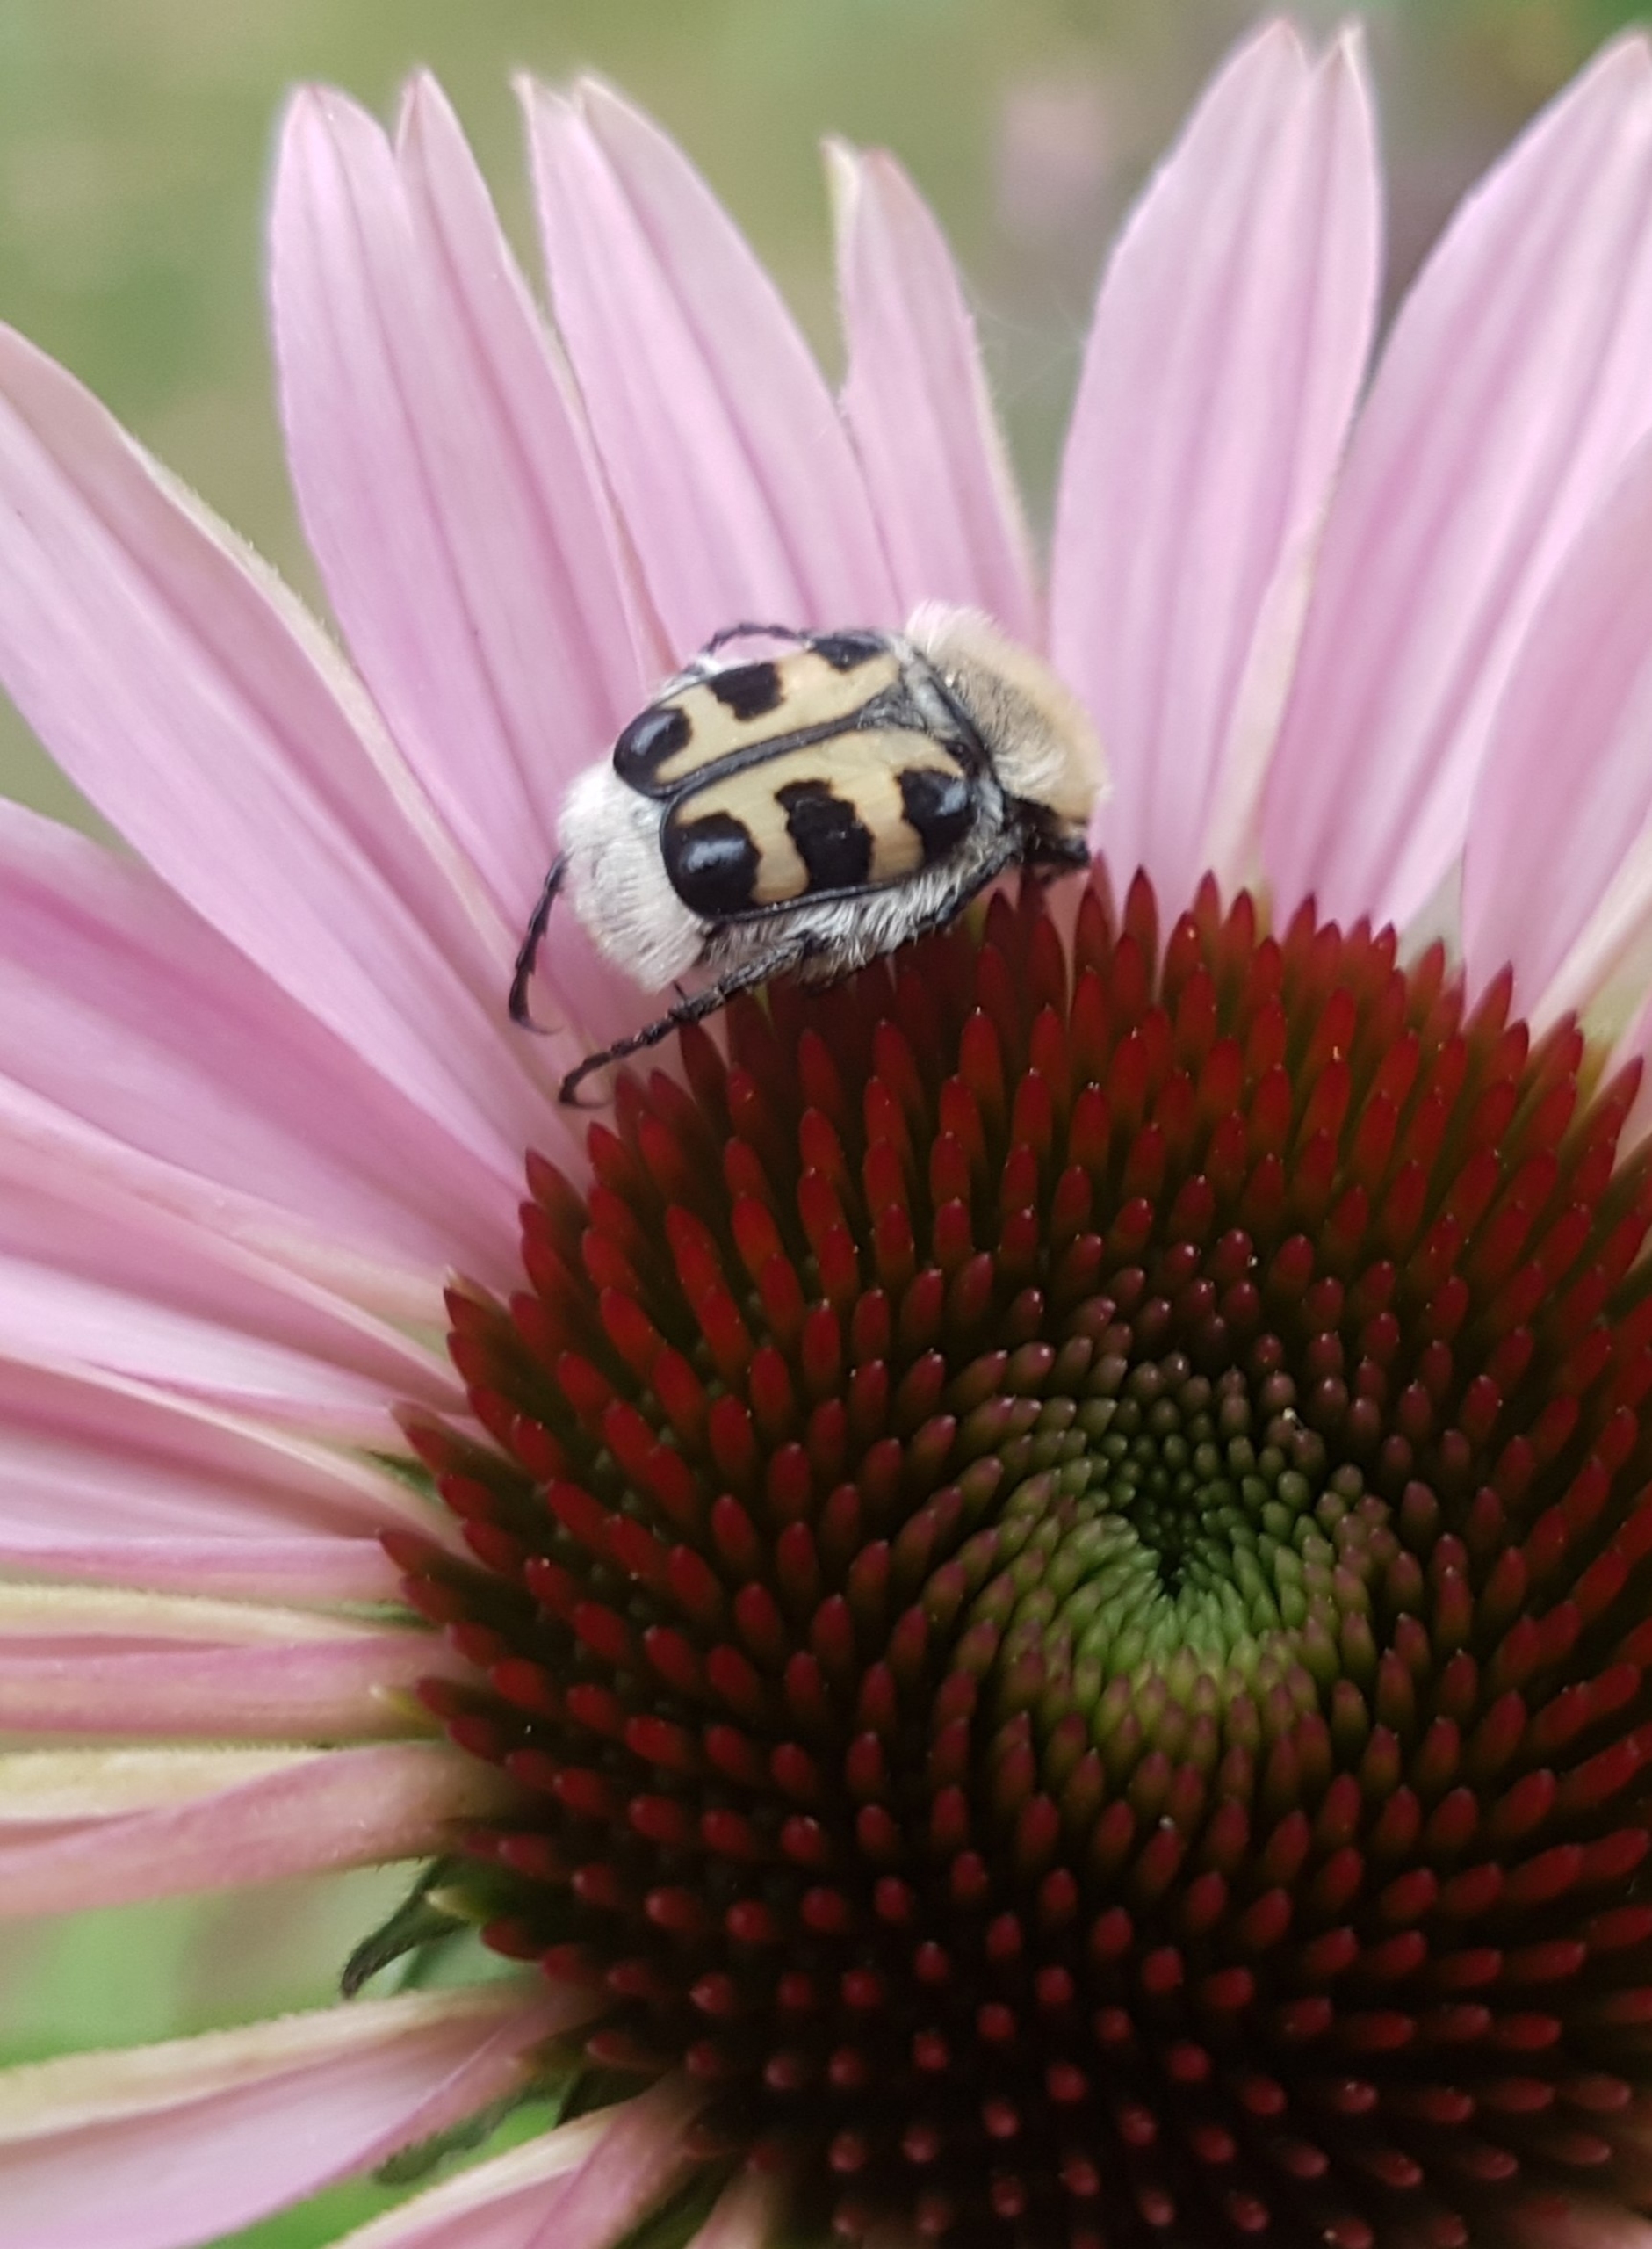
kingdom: Animalia
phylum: Arthropoda
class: Insecta
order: Coleoptera
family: Scarabaeidae
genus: Trichius
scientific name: Trichius gallicus
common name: Lille humlebille
